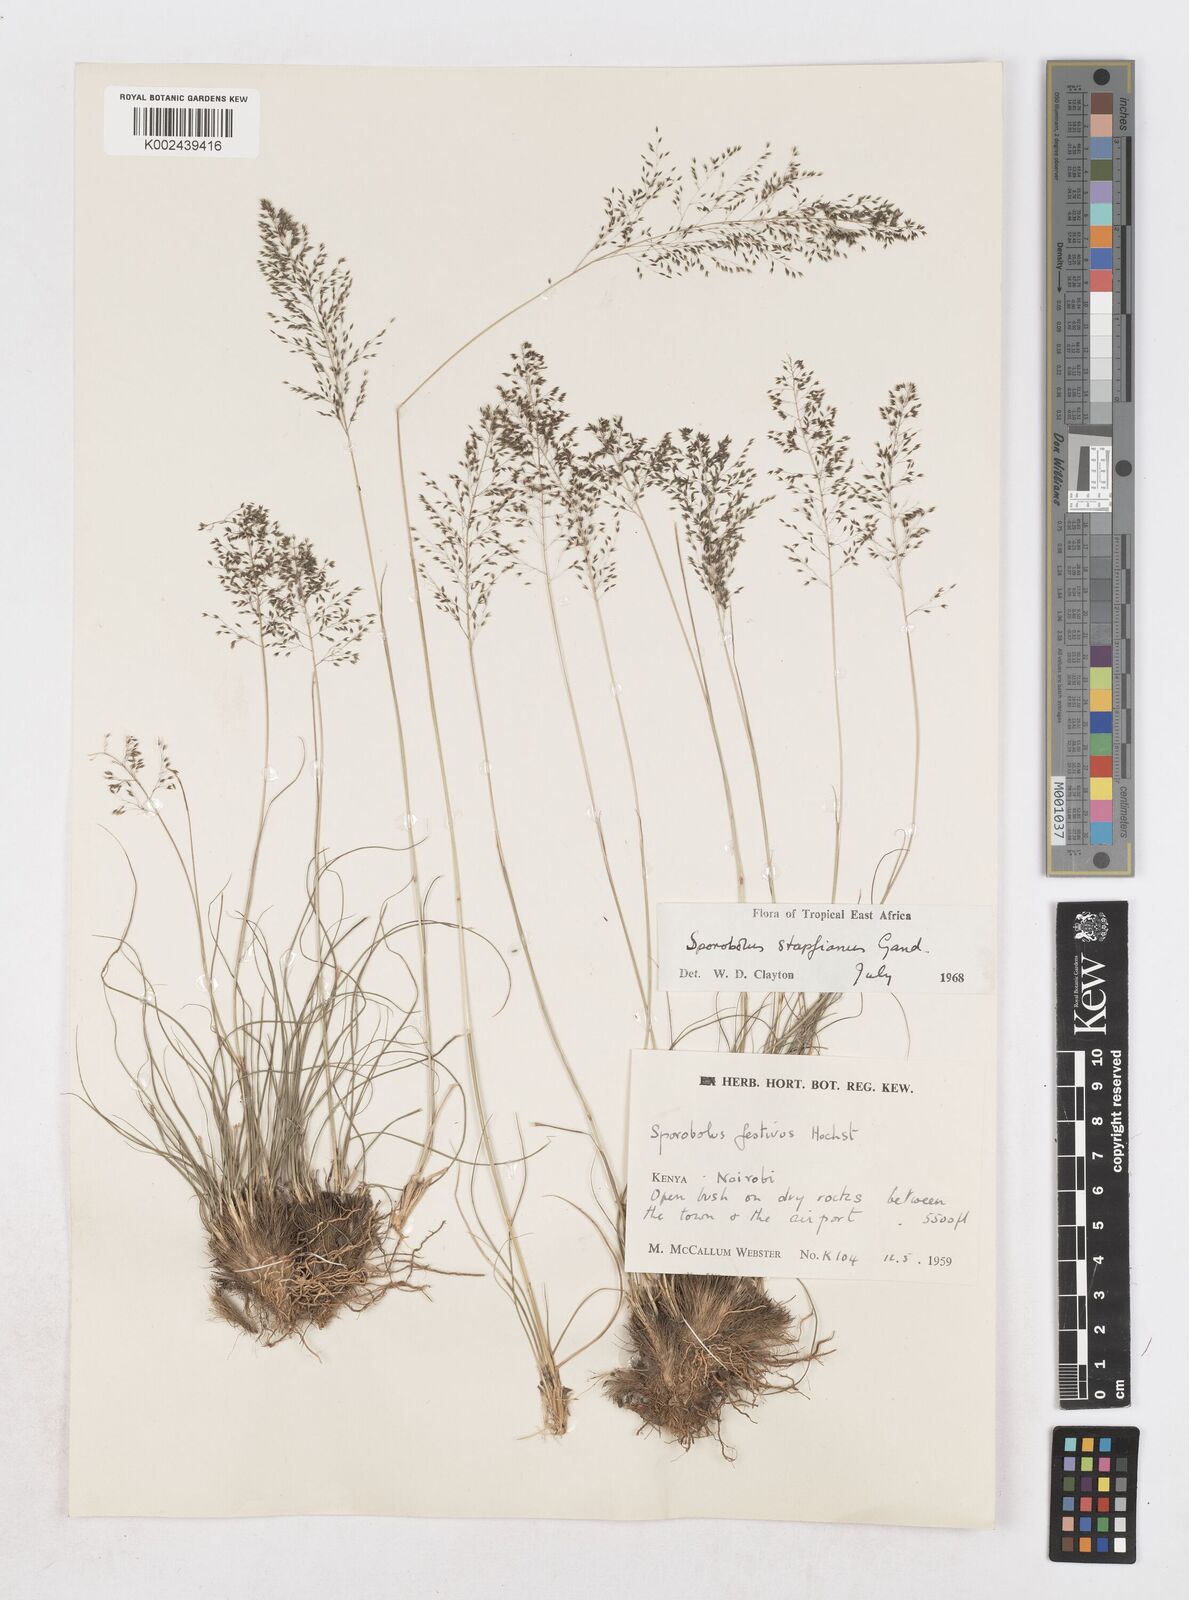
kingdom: Plantae
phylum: Tracheophyta
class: Liliopsida
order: Poales
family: Poaceae
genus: Sporobolus
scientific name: Sporobolus stapfianus
